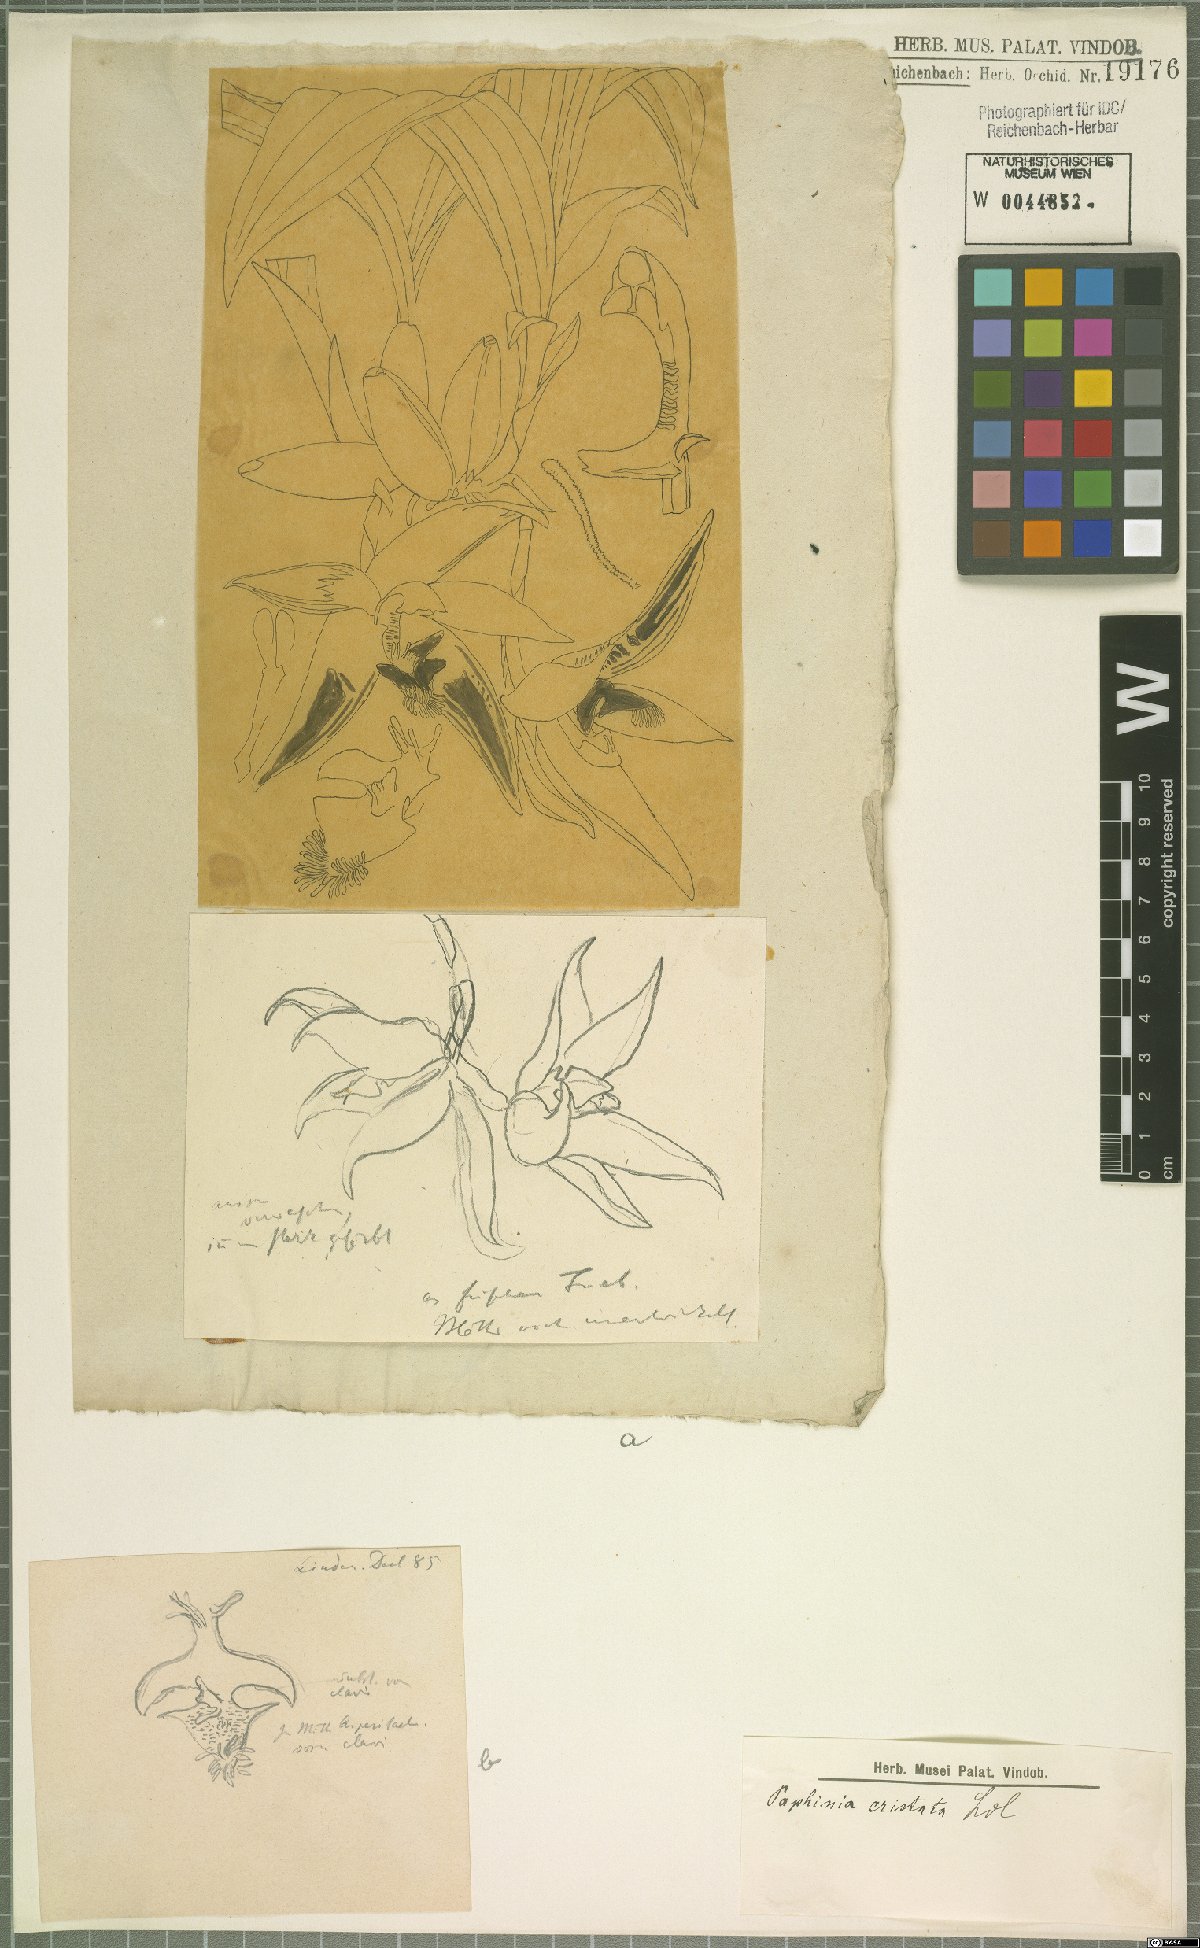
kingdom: Plantae
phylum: Tracheophyta
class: Liliopsida
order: Asparagales
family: Orchidaceae
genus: Paphinia
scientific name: Paphinia cristata
